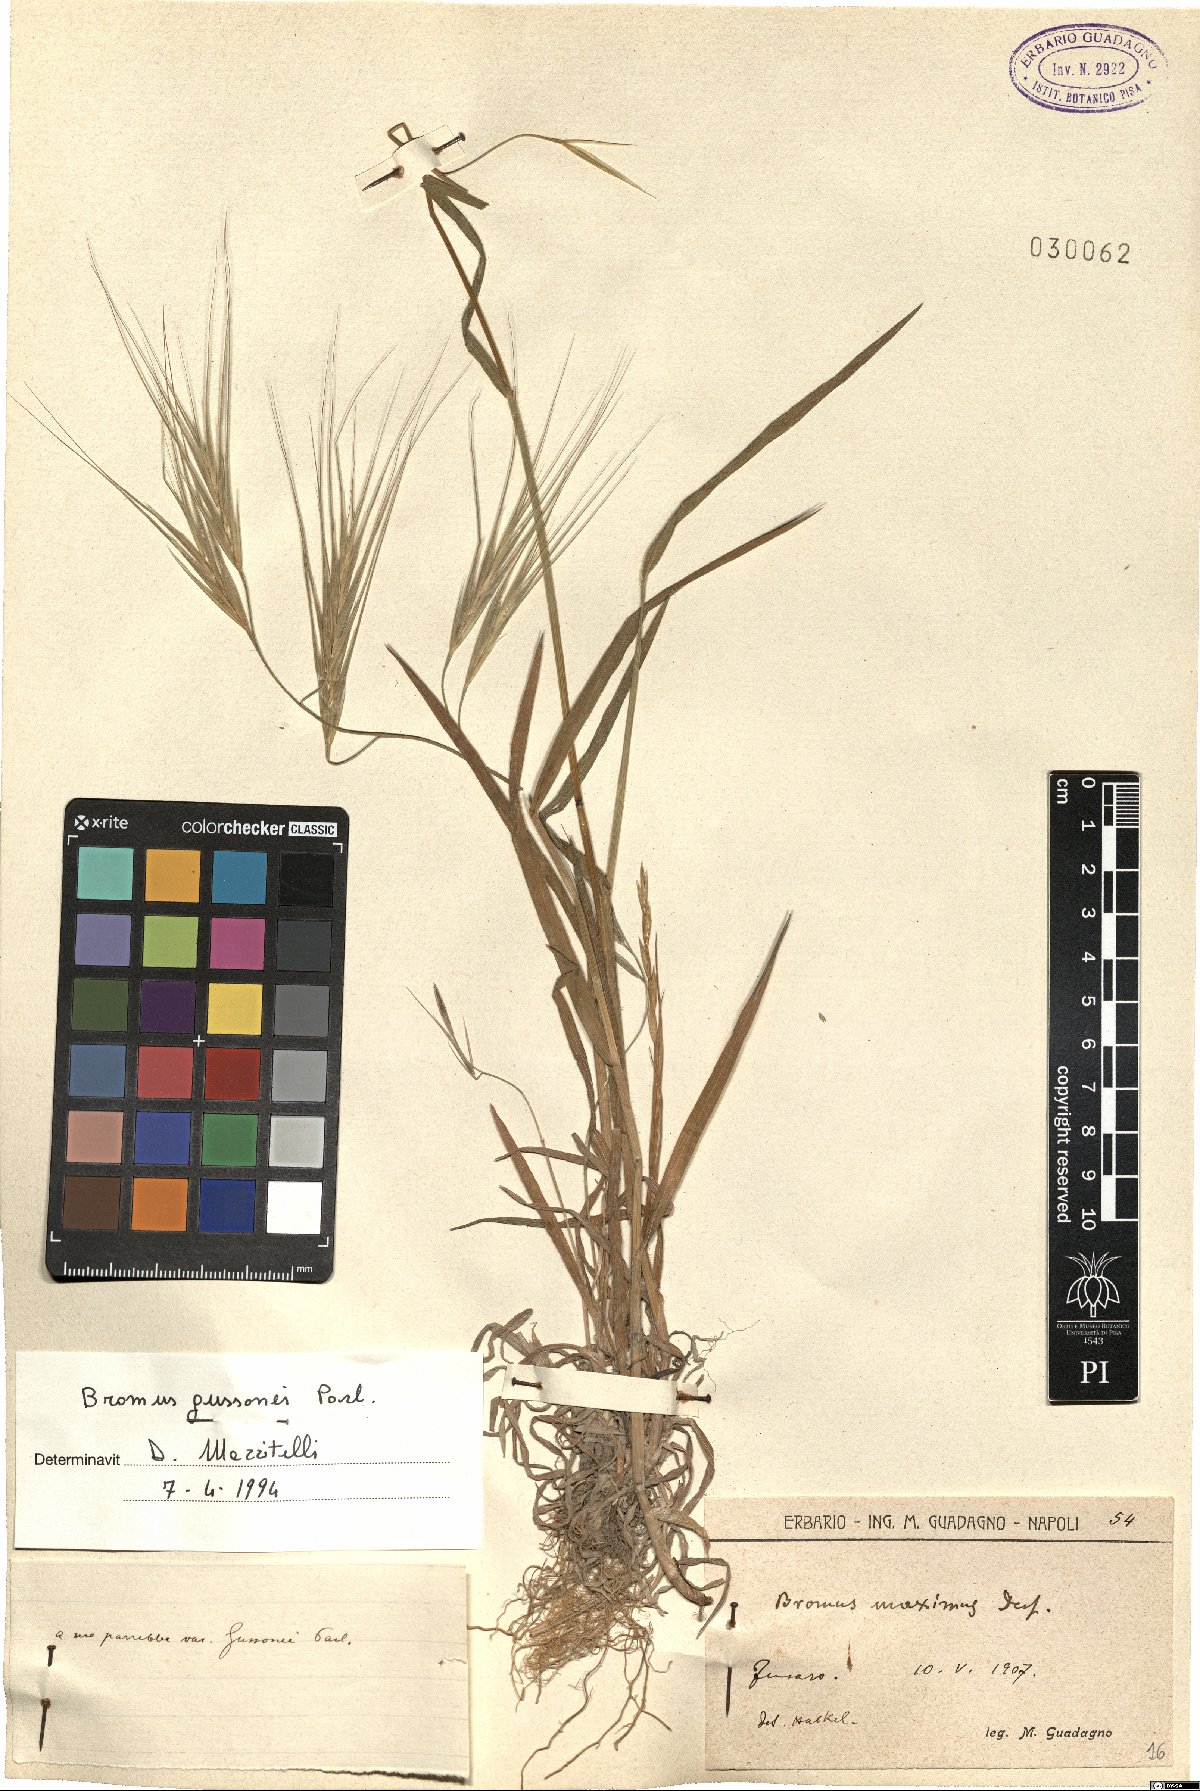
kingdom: Plantae
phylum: Tracheophyta
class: Liliopsida
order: Poales
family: Poaceae
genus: Bromus
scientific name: Bromus diandrus
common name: Ripgut brome
